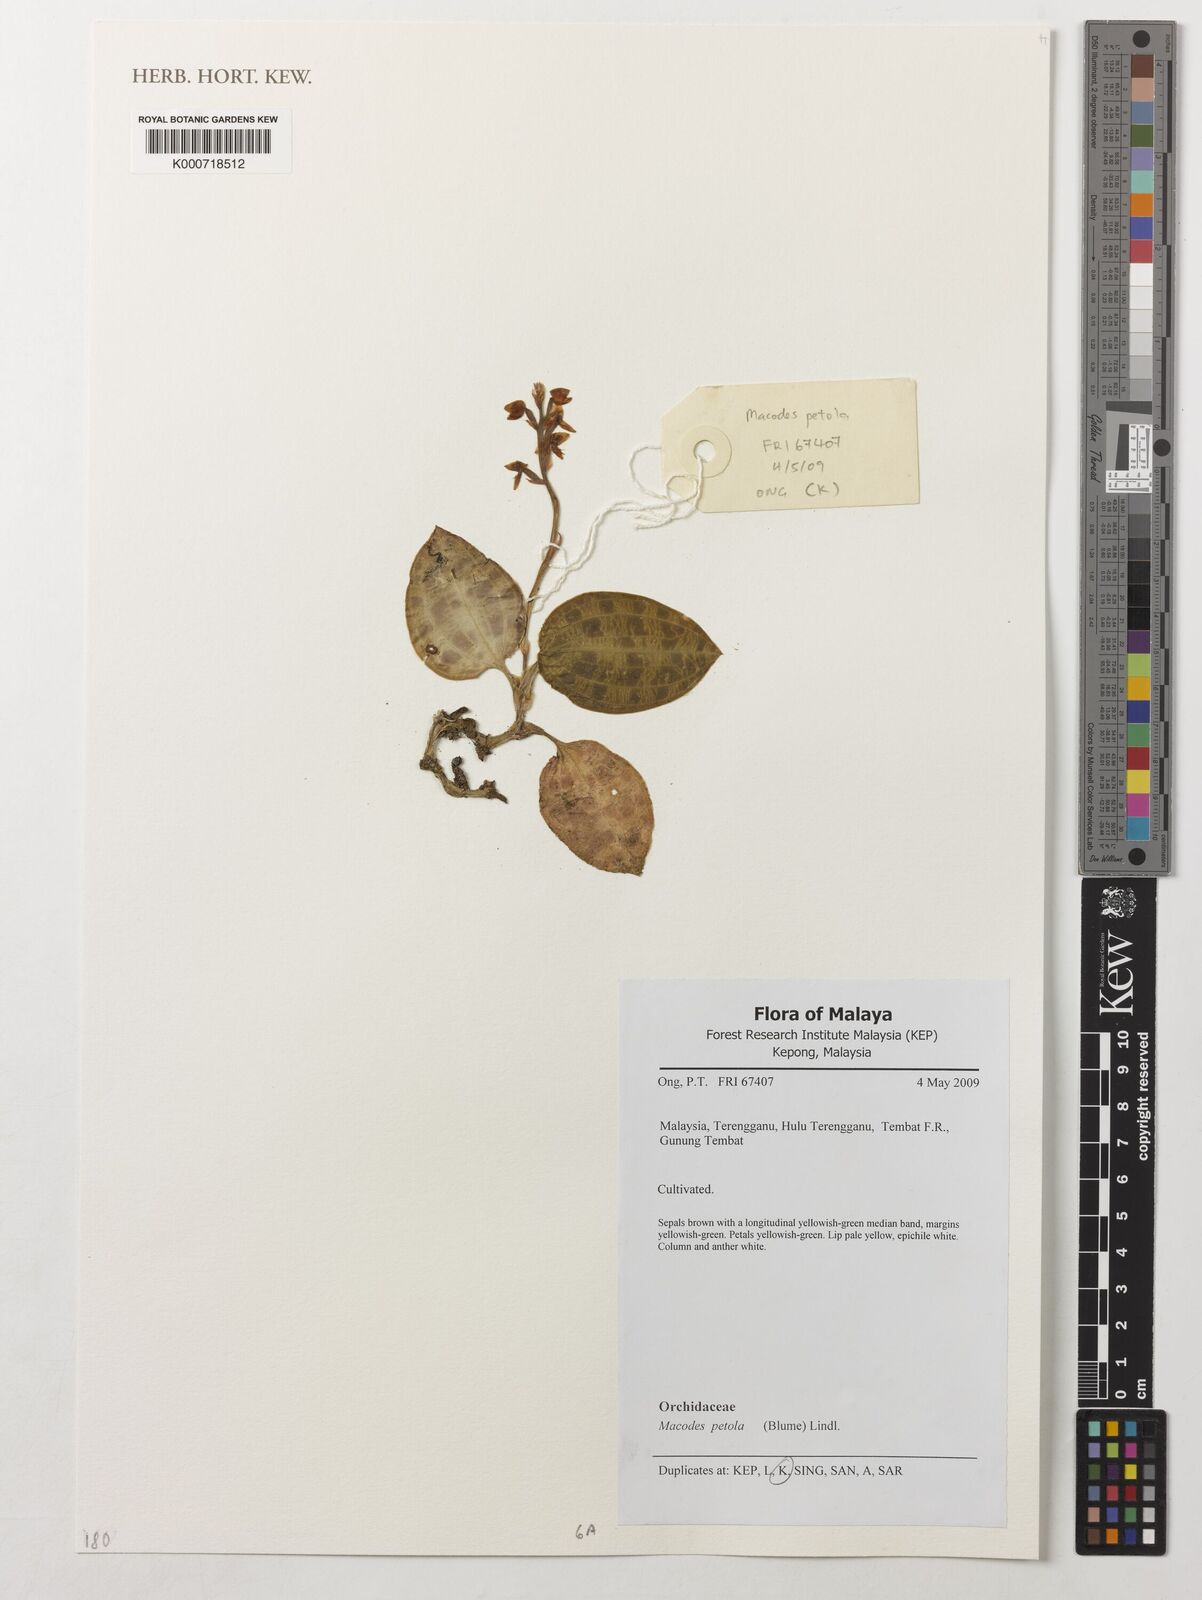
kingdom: Plantae
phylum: Tracheophyta
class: Liliopsida
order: Asparagales
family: Orchidaceae
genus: Macodes
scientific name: Macodes petola
